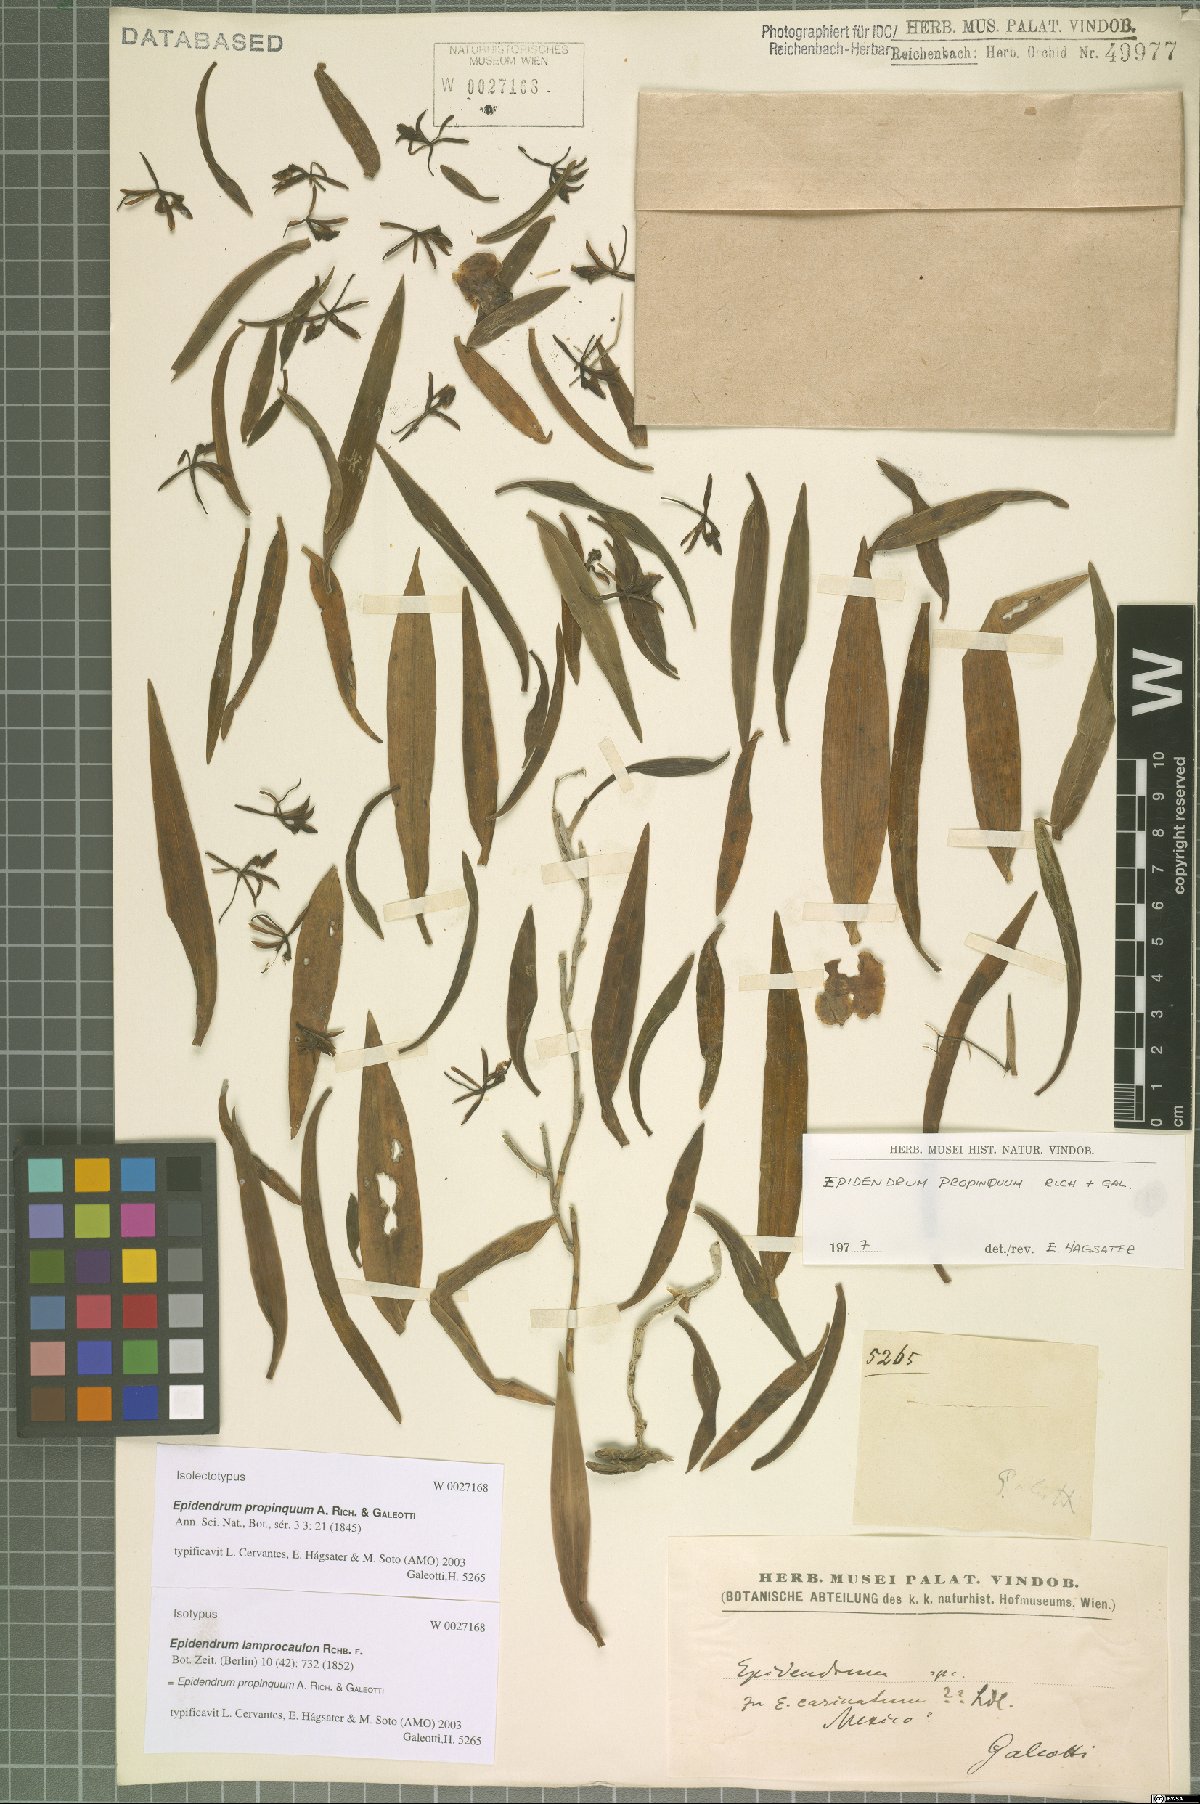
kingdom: Plantae
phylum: Tracheophyta
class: Liliopsida
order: Asparagales
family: Orchidaceae
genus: Epidendrum
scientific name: Epidendrum propinquum
